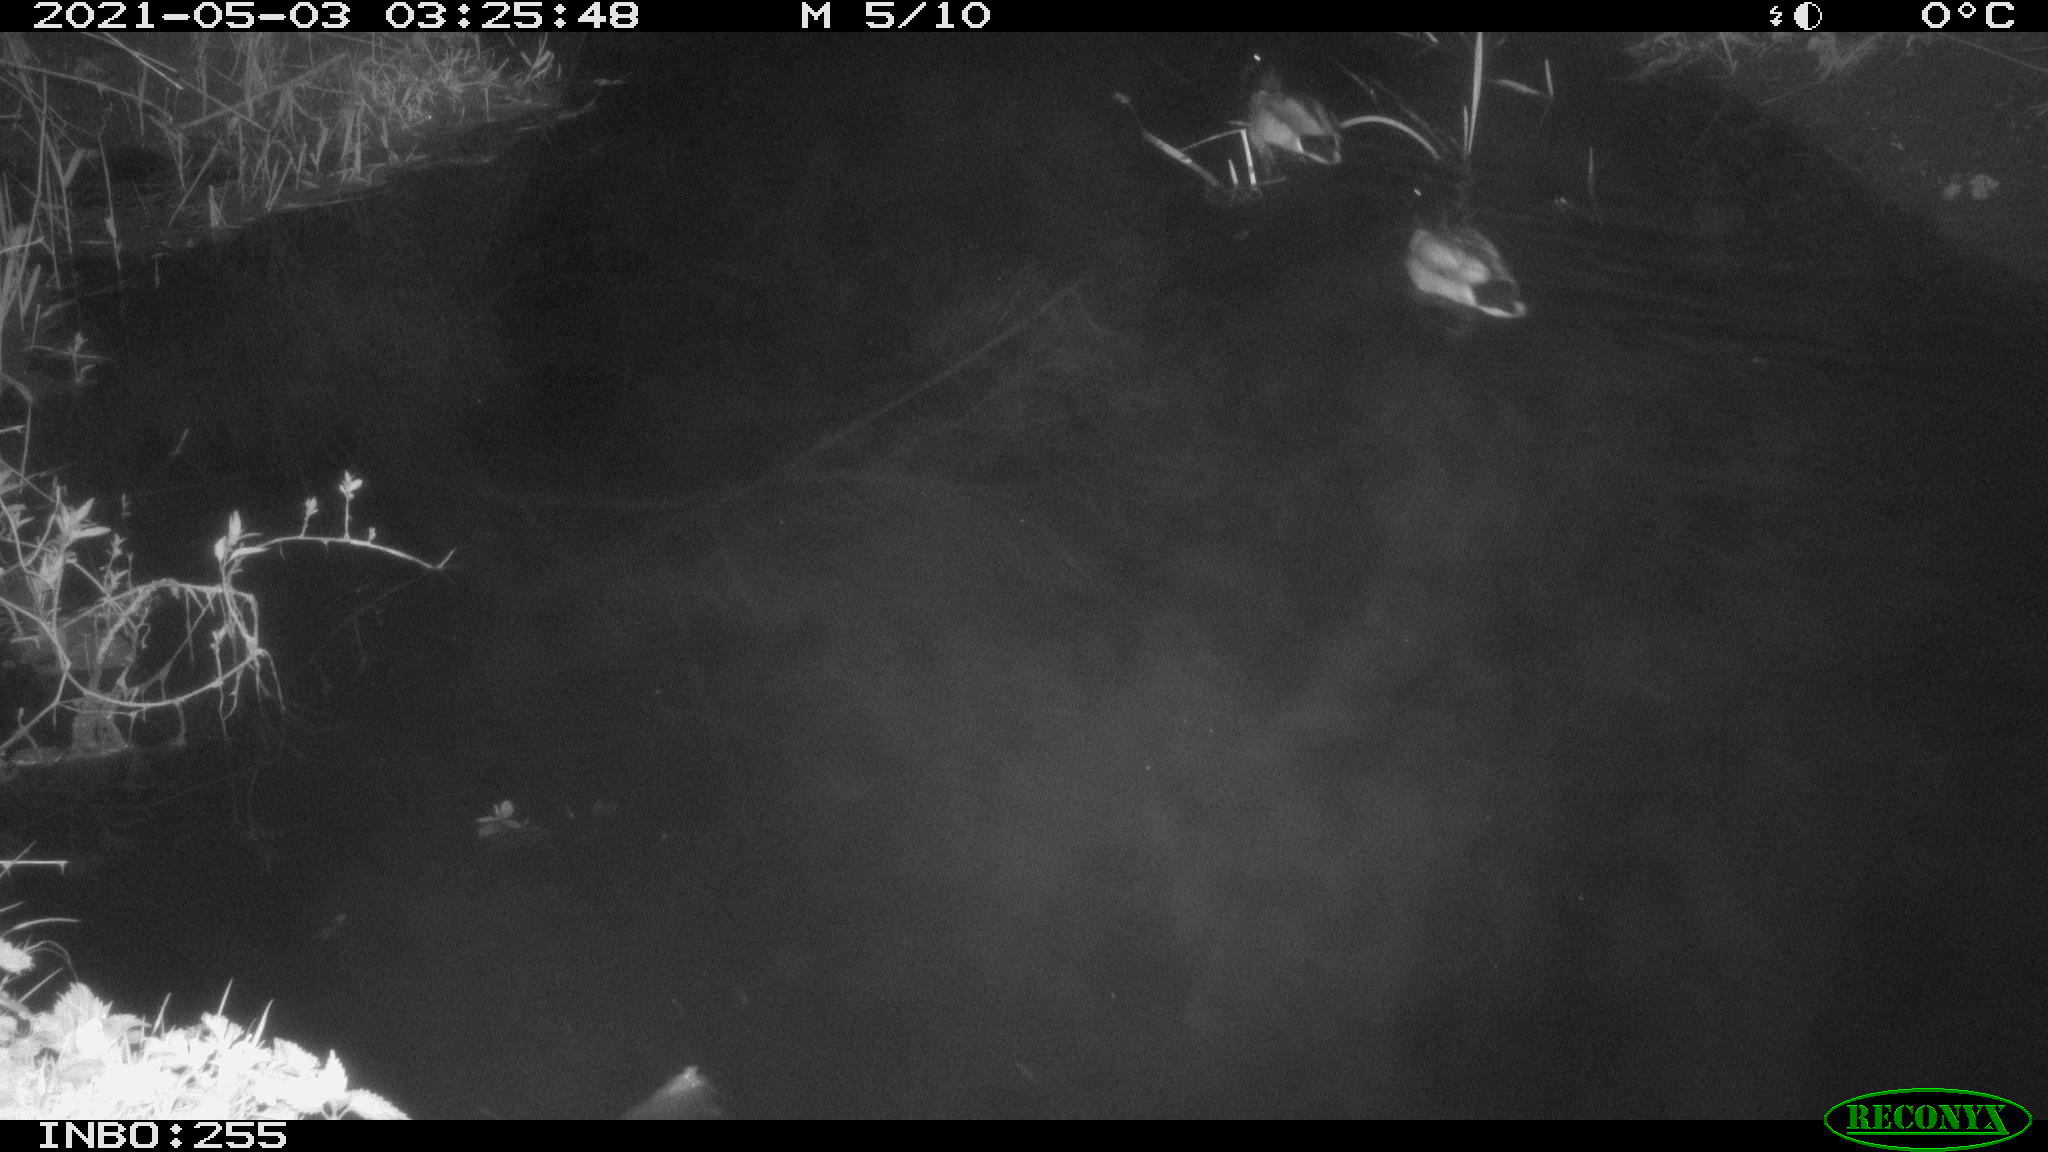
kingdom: Animalia
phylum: Chordata
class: Aves
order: Anseriformes
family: Anatidae
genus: Anas
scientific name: Anas platyrhynchos
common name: Mallard
